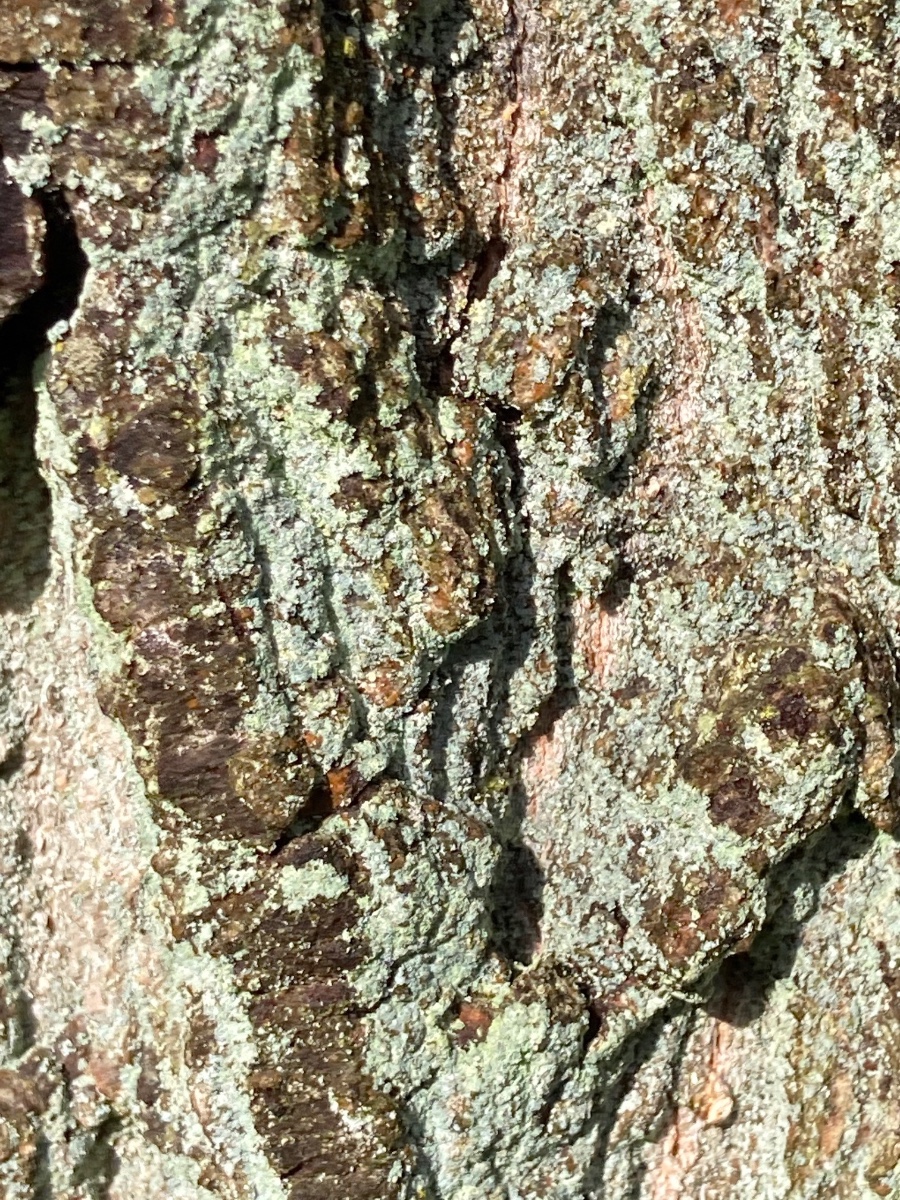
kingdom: Fungi
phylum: Ascomycota
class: Lecanoromycetes
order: Lecanorales
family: Stereocaulaceae
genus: Lepraria
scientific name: Lepraria incana
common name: almindelig støvlav
